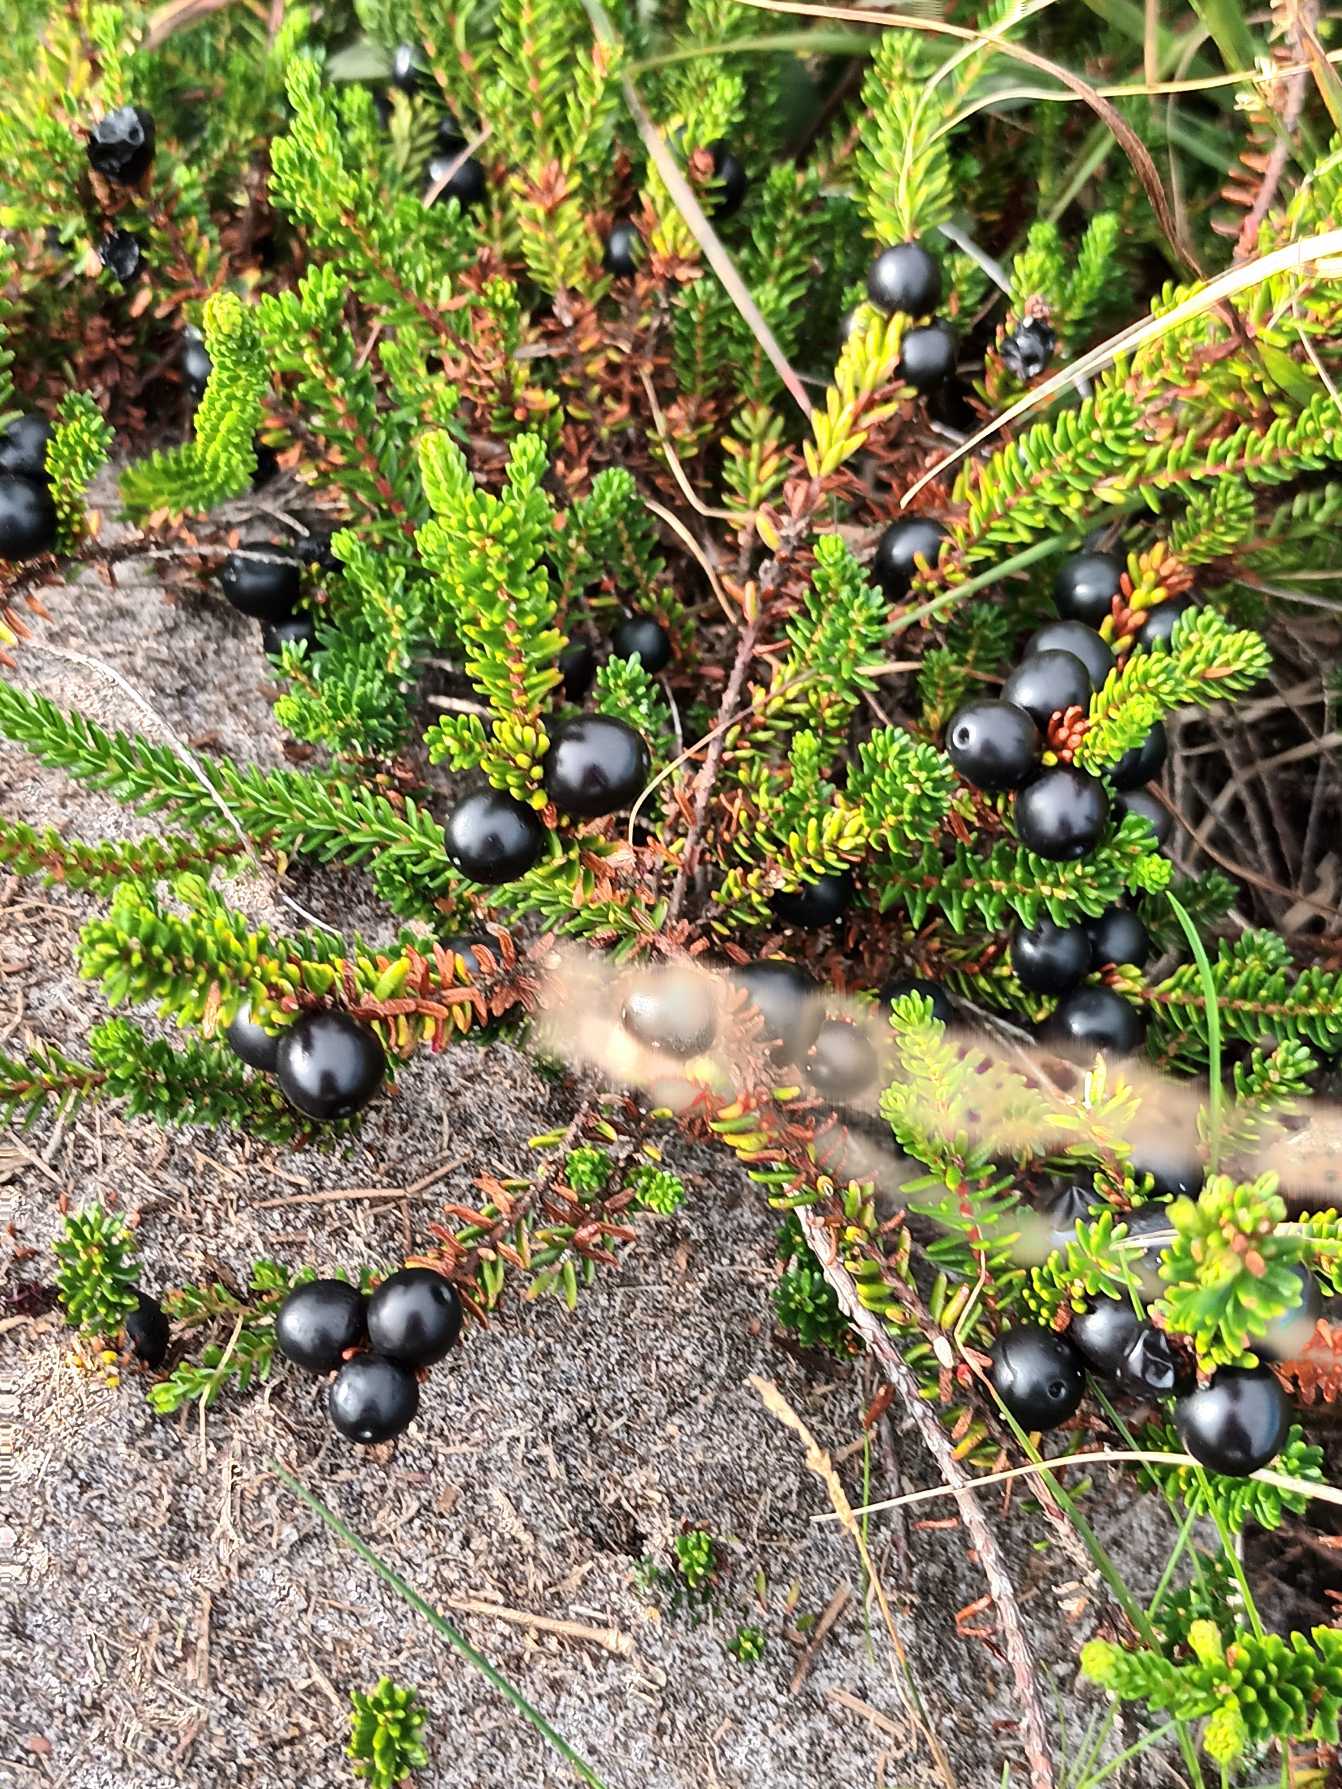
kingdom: Plantae
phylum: Tracheophyta
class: Magnoliopsida
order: Ericales
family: Ericaceae
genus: Empetrum
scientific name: Empetrum nigrum
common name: Revling
